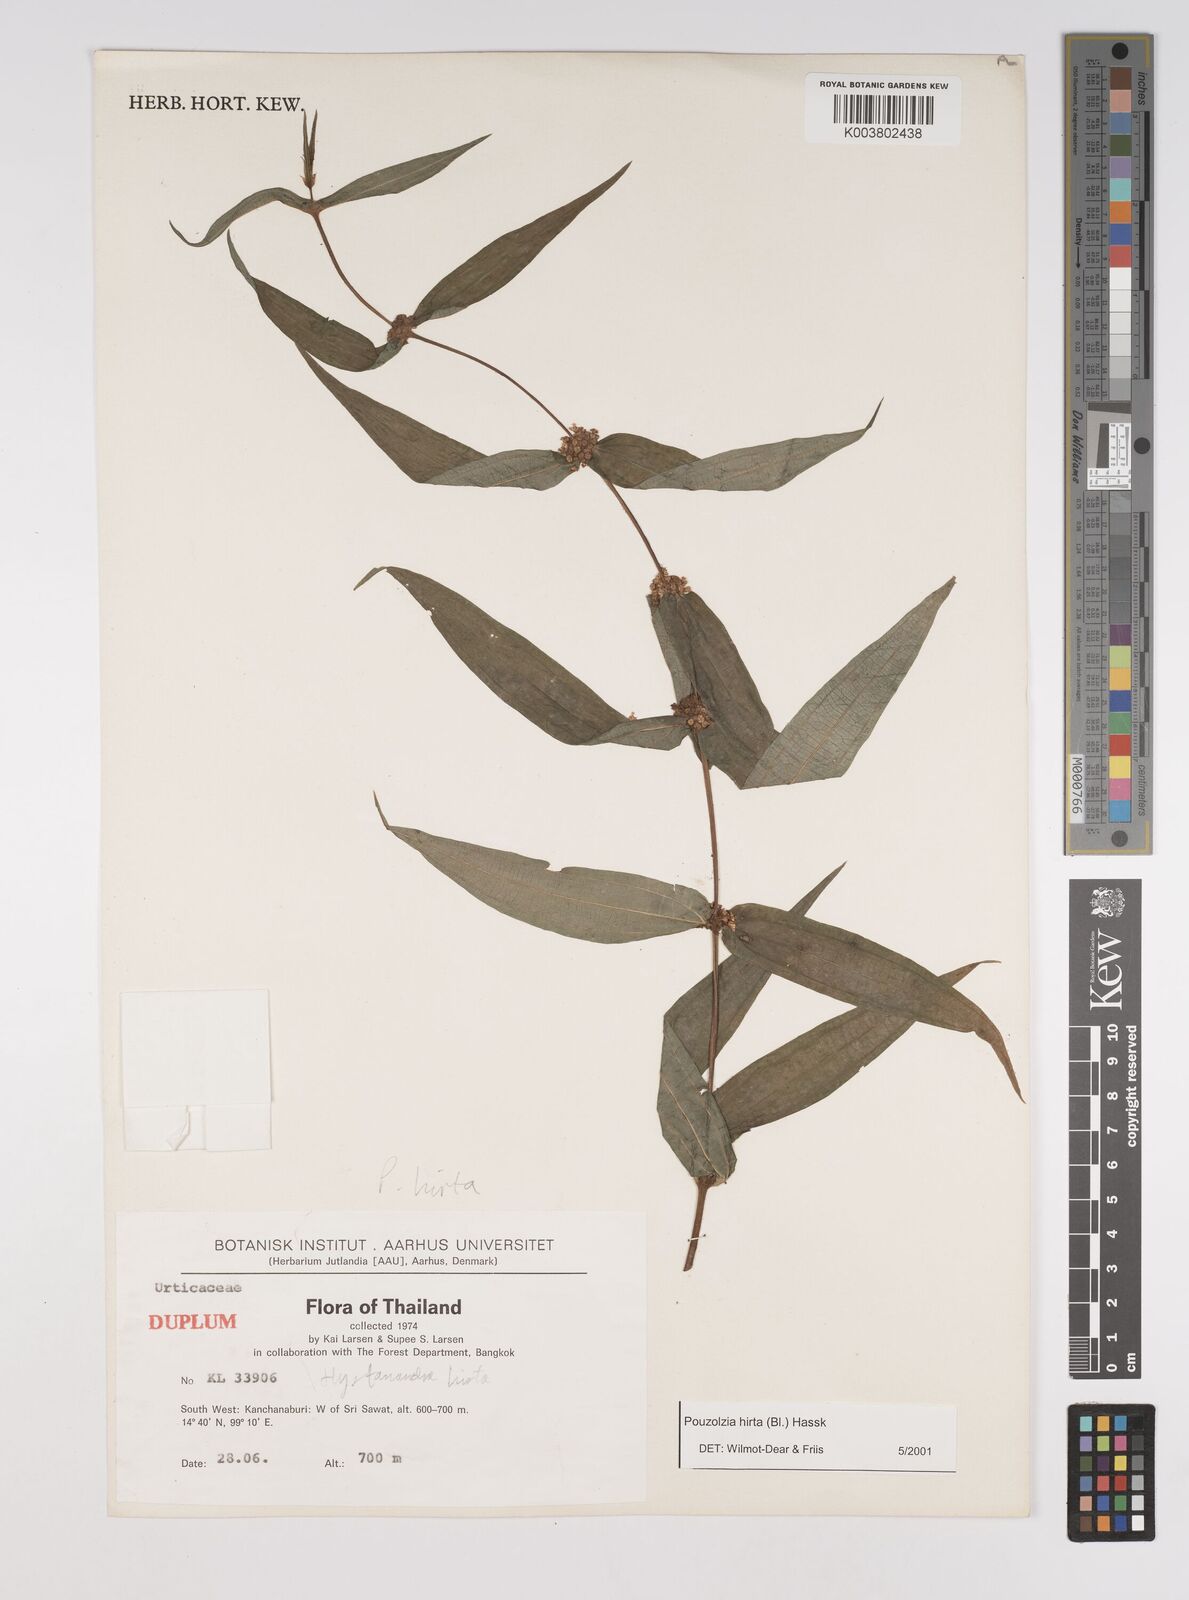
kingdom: Plantae
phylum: Tracheophyta
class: Magnoliopsida
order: Rosales
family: Urticaceae
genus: Gonostegia
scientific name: Gonostegia triandra
